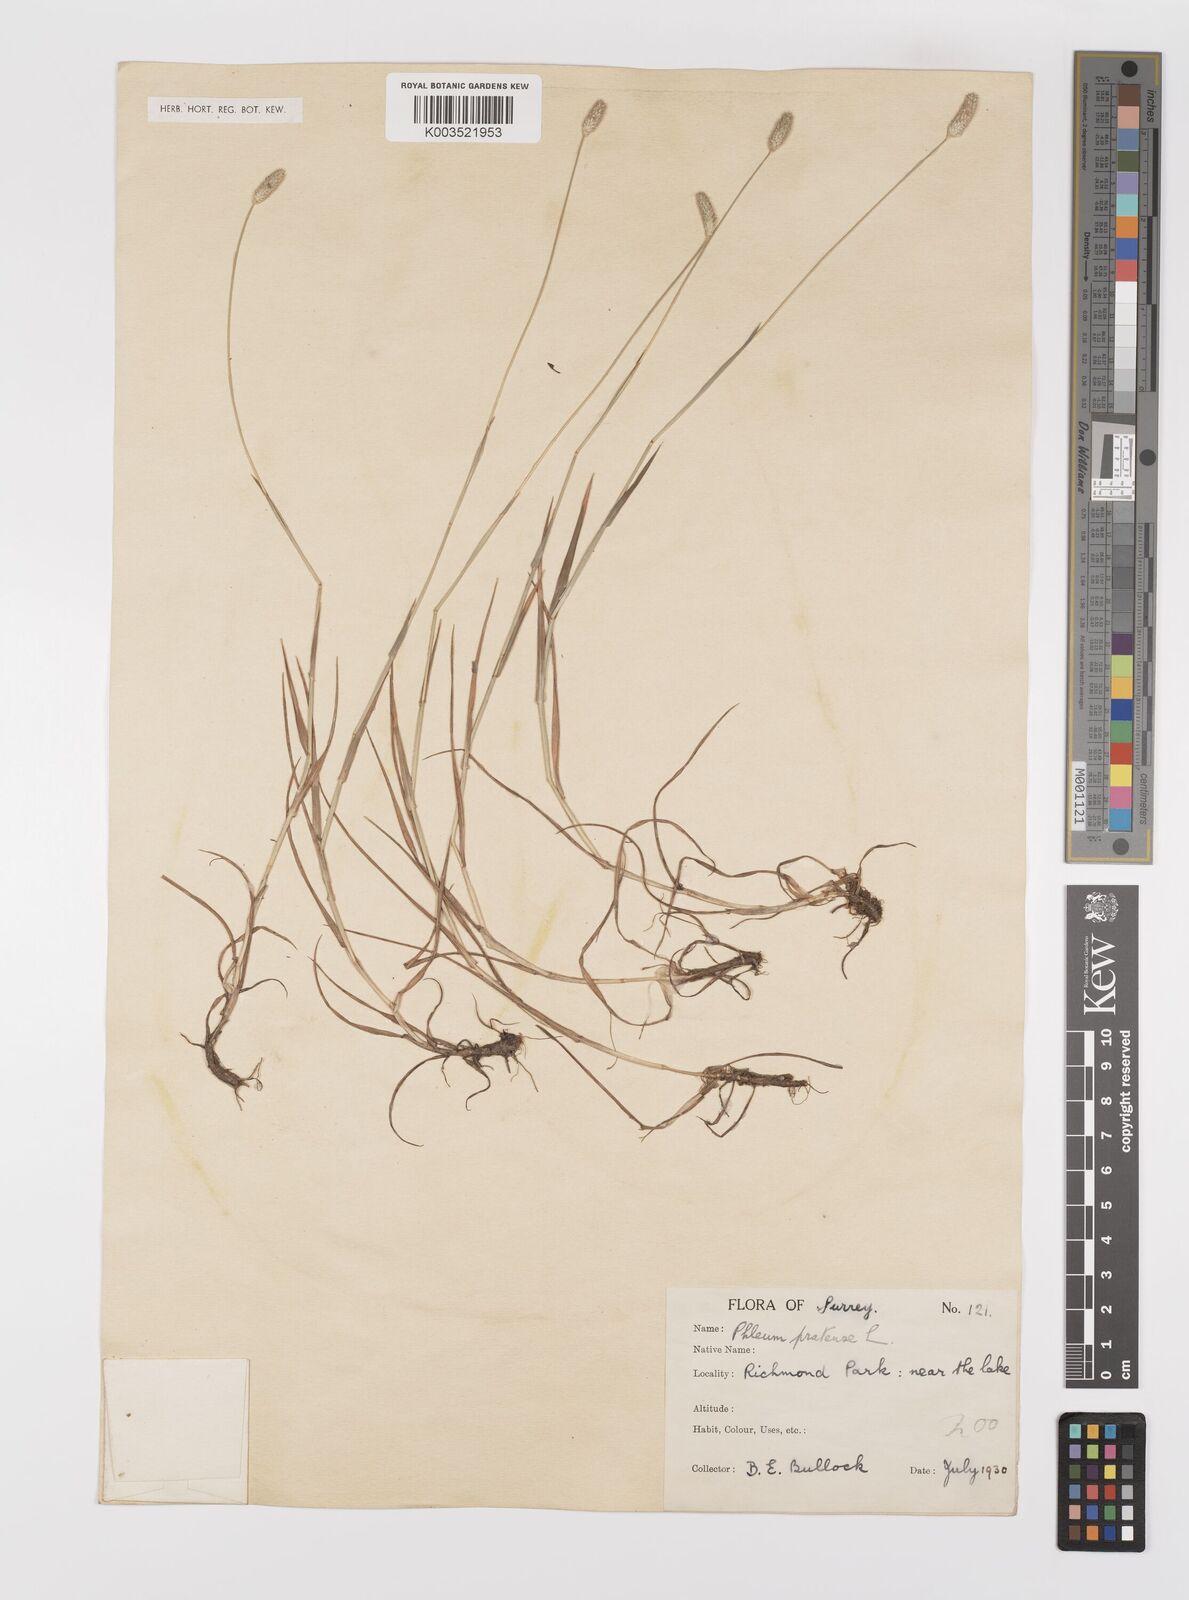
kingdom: Plantae
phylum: Tracheophyta
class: Liliopsida
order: Poales
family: Poaceae
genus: Phleum
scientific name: Phleum bertolonii
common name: Smaller cat's-tail
